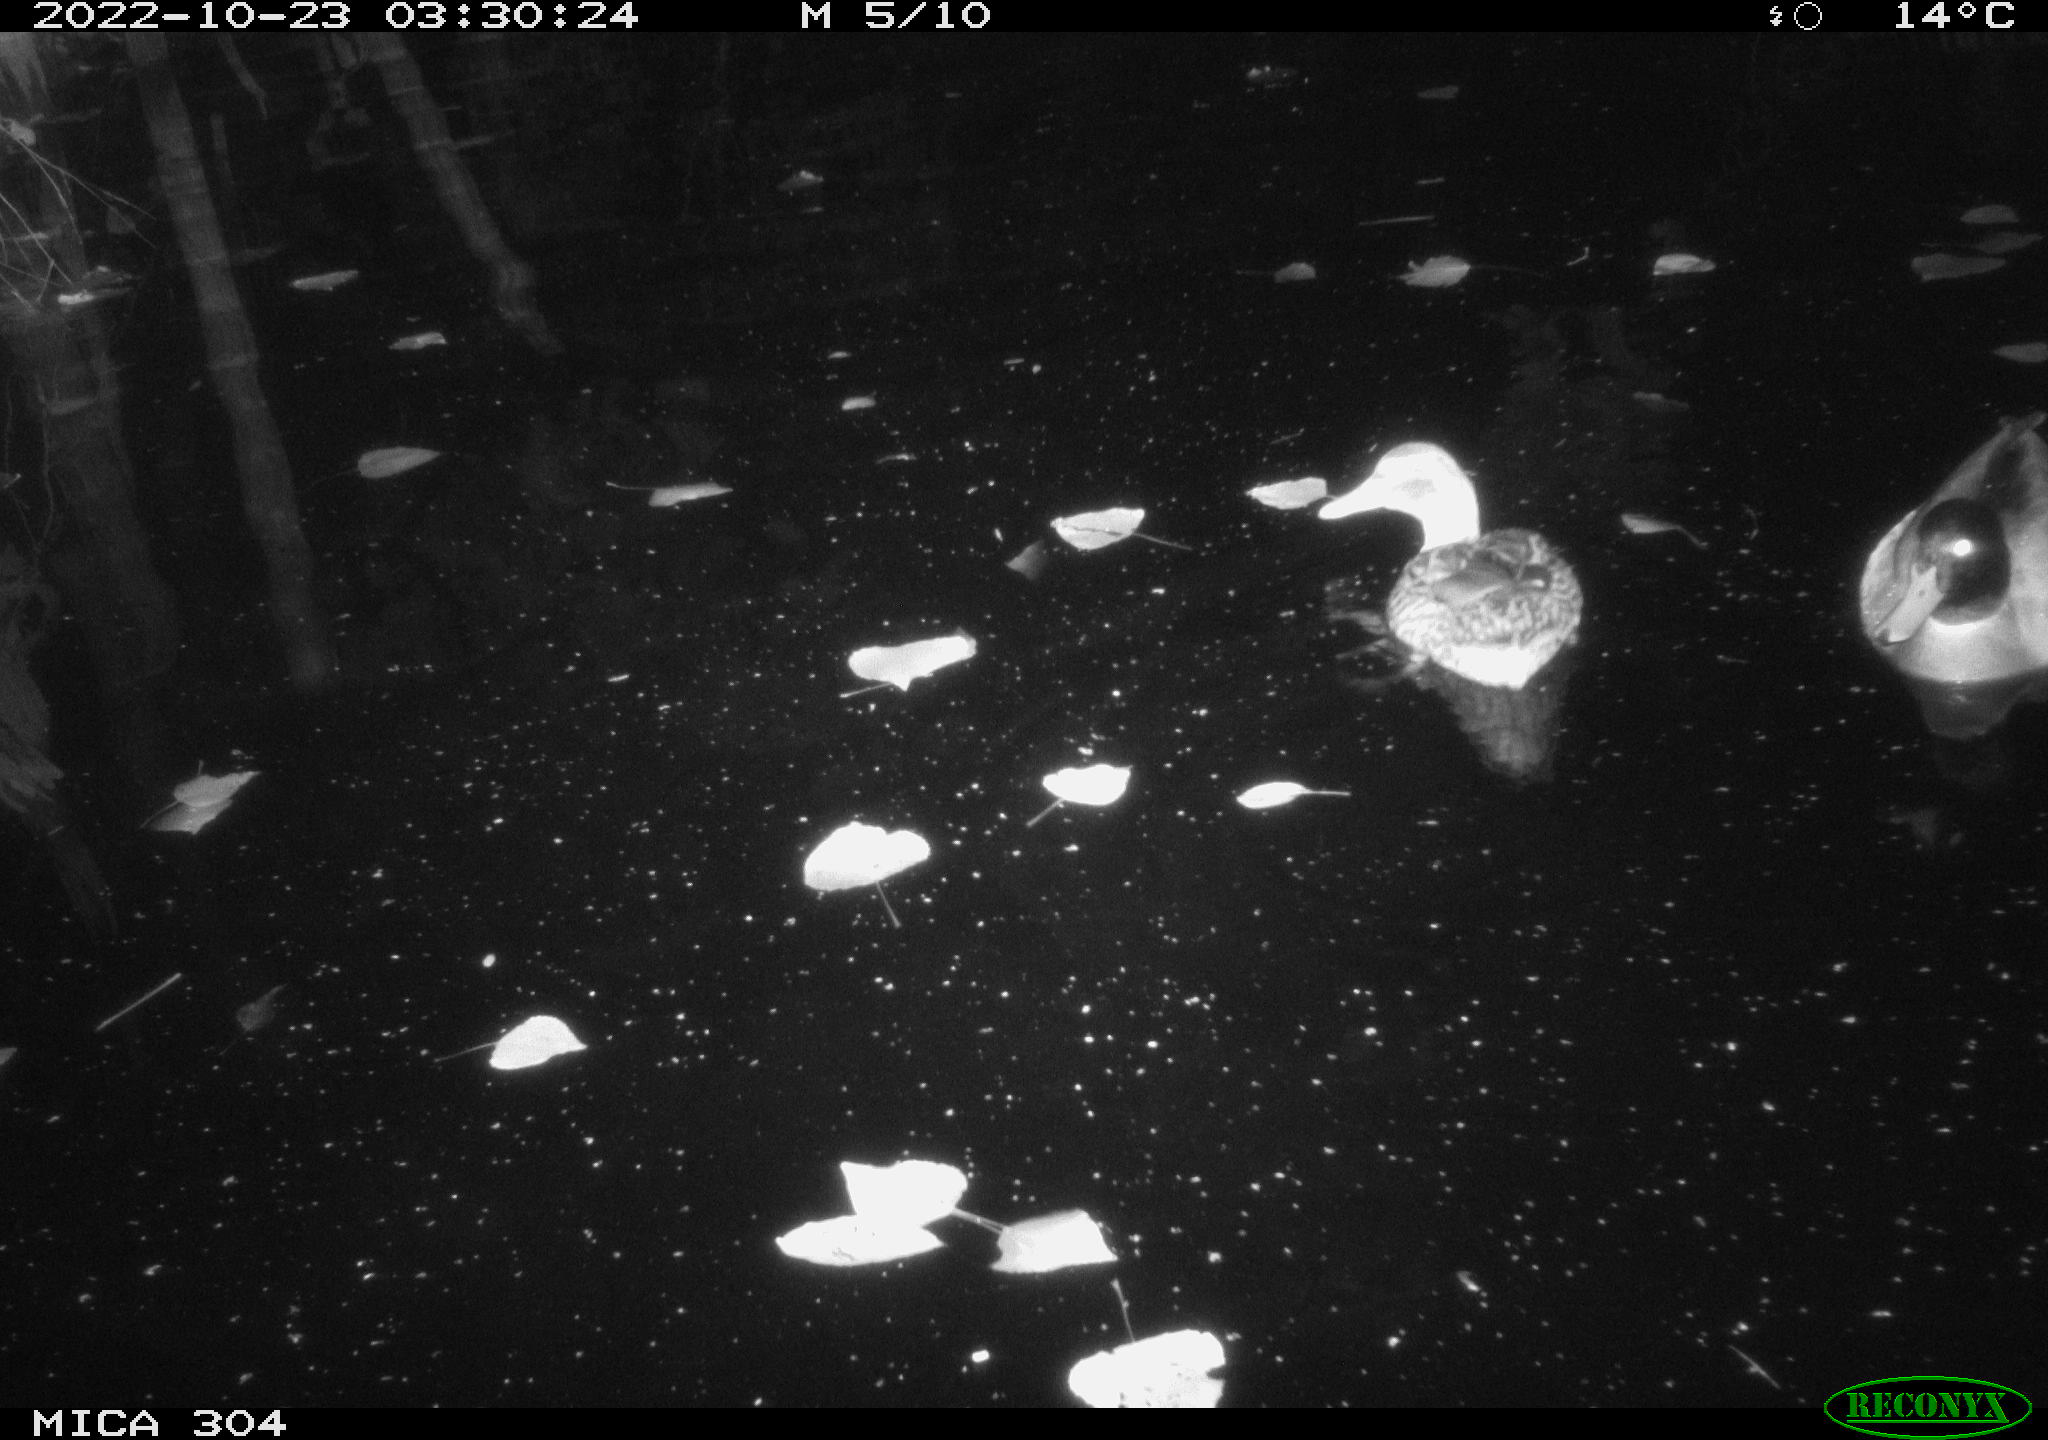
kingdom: Animalia
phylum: Chordata
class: Aves
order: Anseriformes
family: Anatidae
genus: Anas
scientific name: Anas
